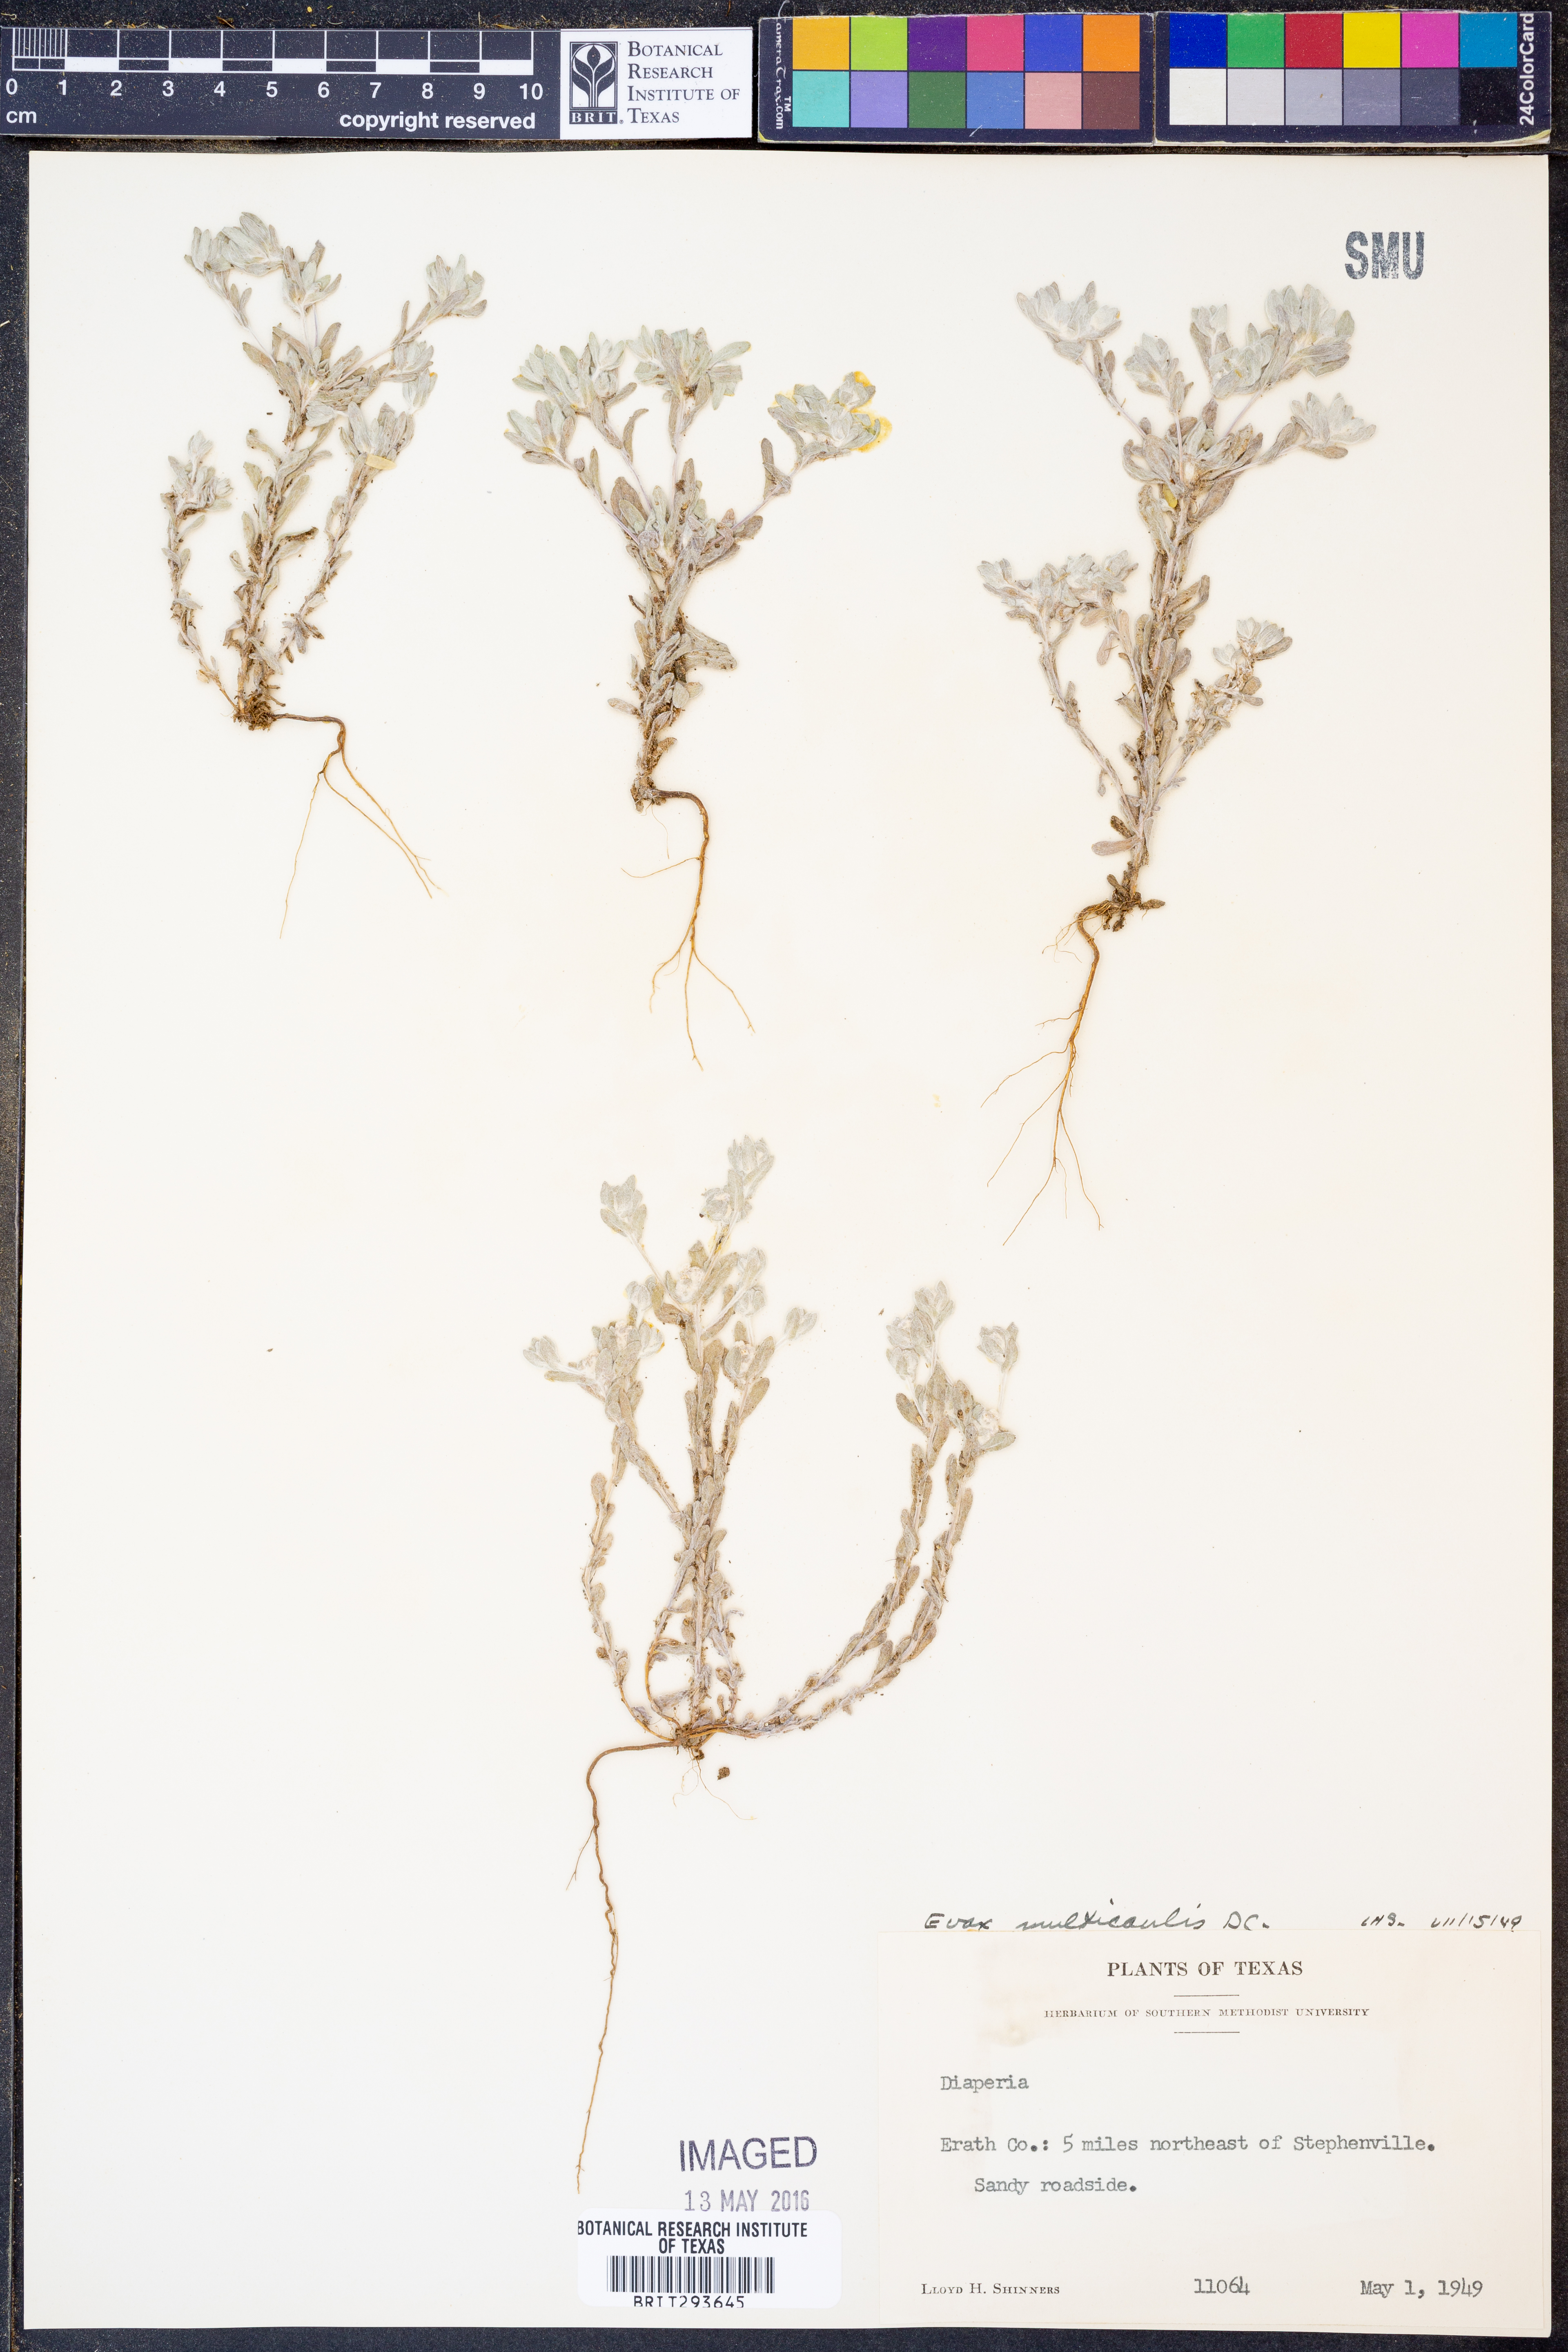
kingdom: Plantae
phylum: Tracheophyta
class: Magnoliopsida
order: Asterales
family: Asteraceae
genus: Diaperia
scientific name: Diaperia verna
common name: Many-stem rabbit-tobacco
